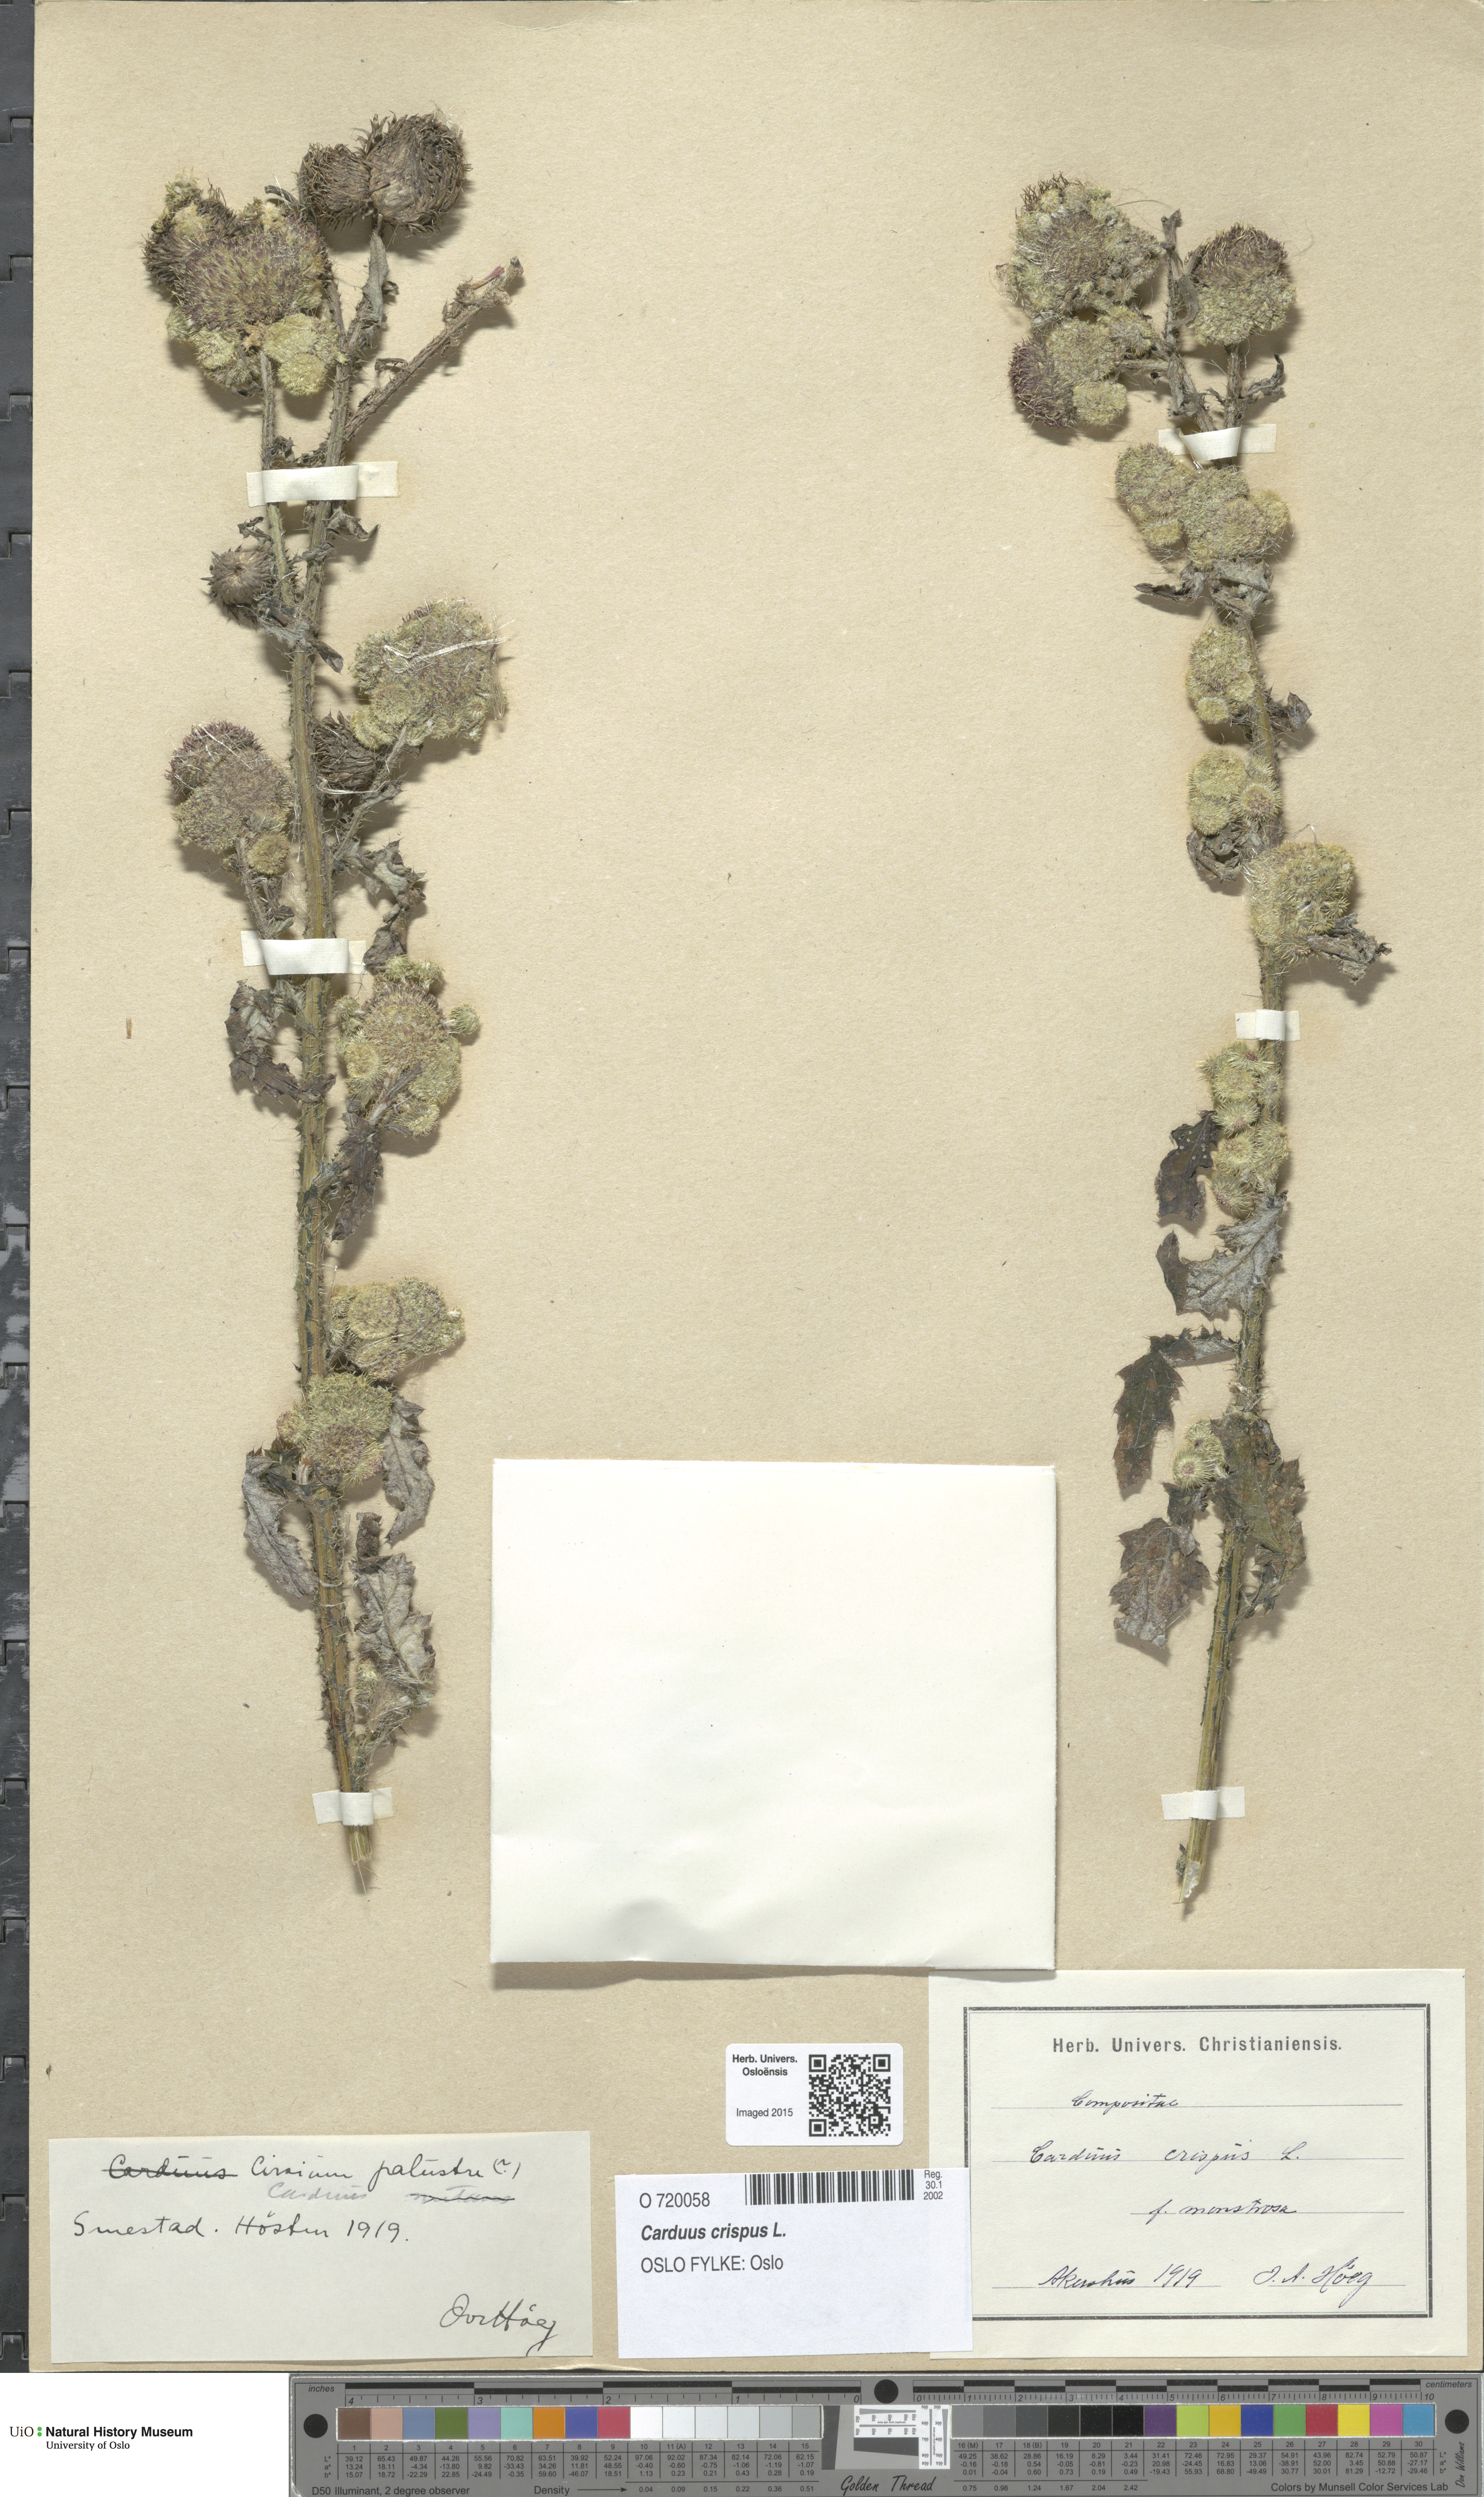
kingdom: Plantae
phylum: Tracheophyta
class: Magnoliopsida
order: Asterales
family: Asteraceae
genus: Carduus
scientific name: Carduus crispus
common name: Welted thistle
